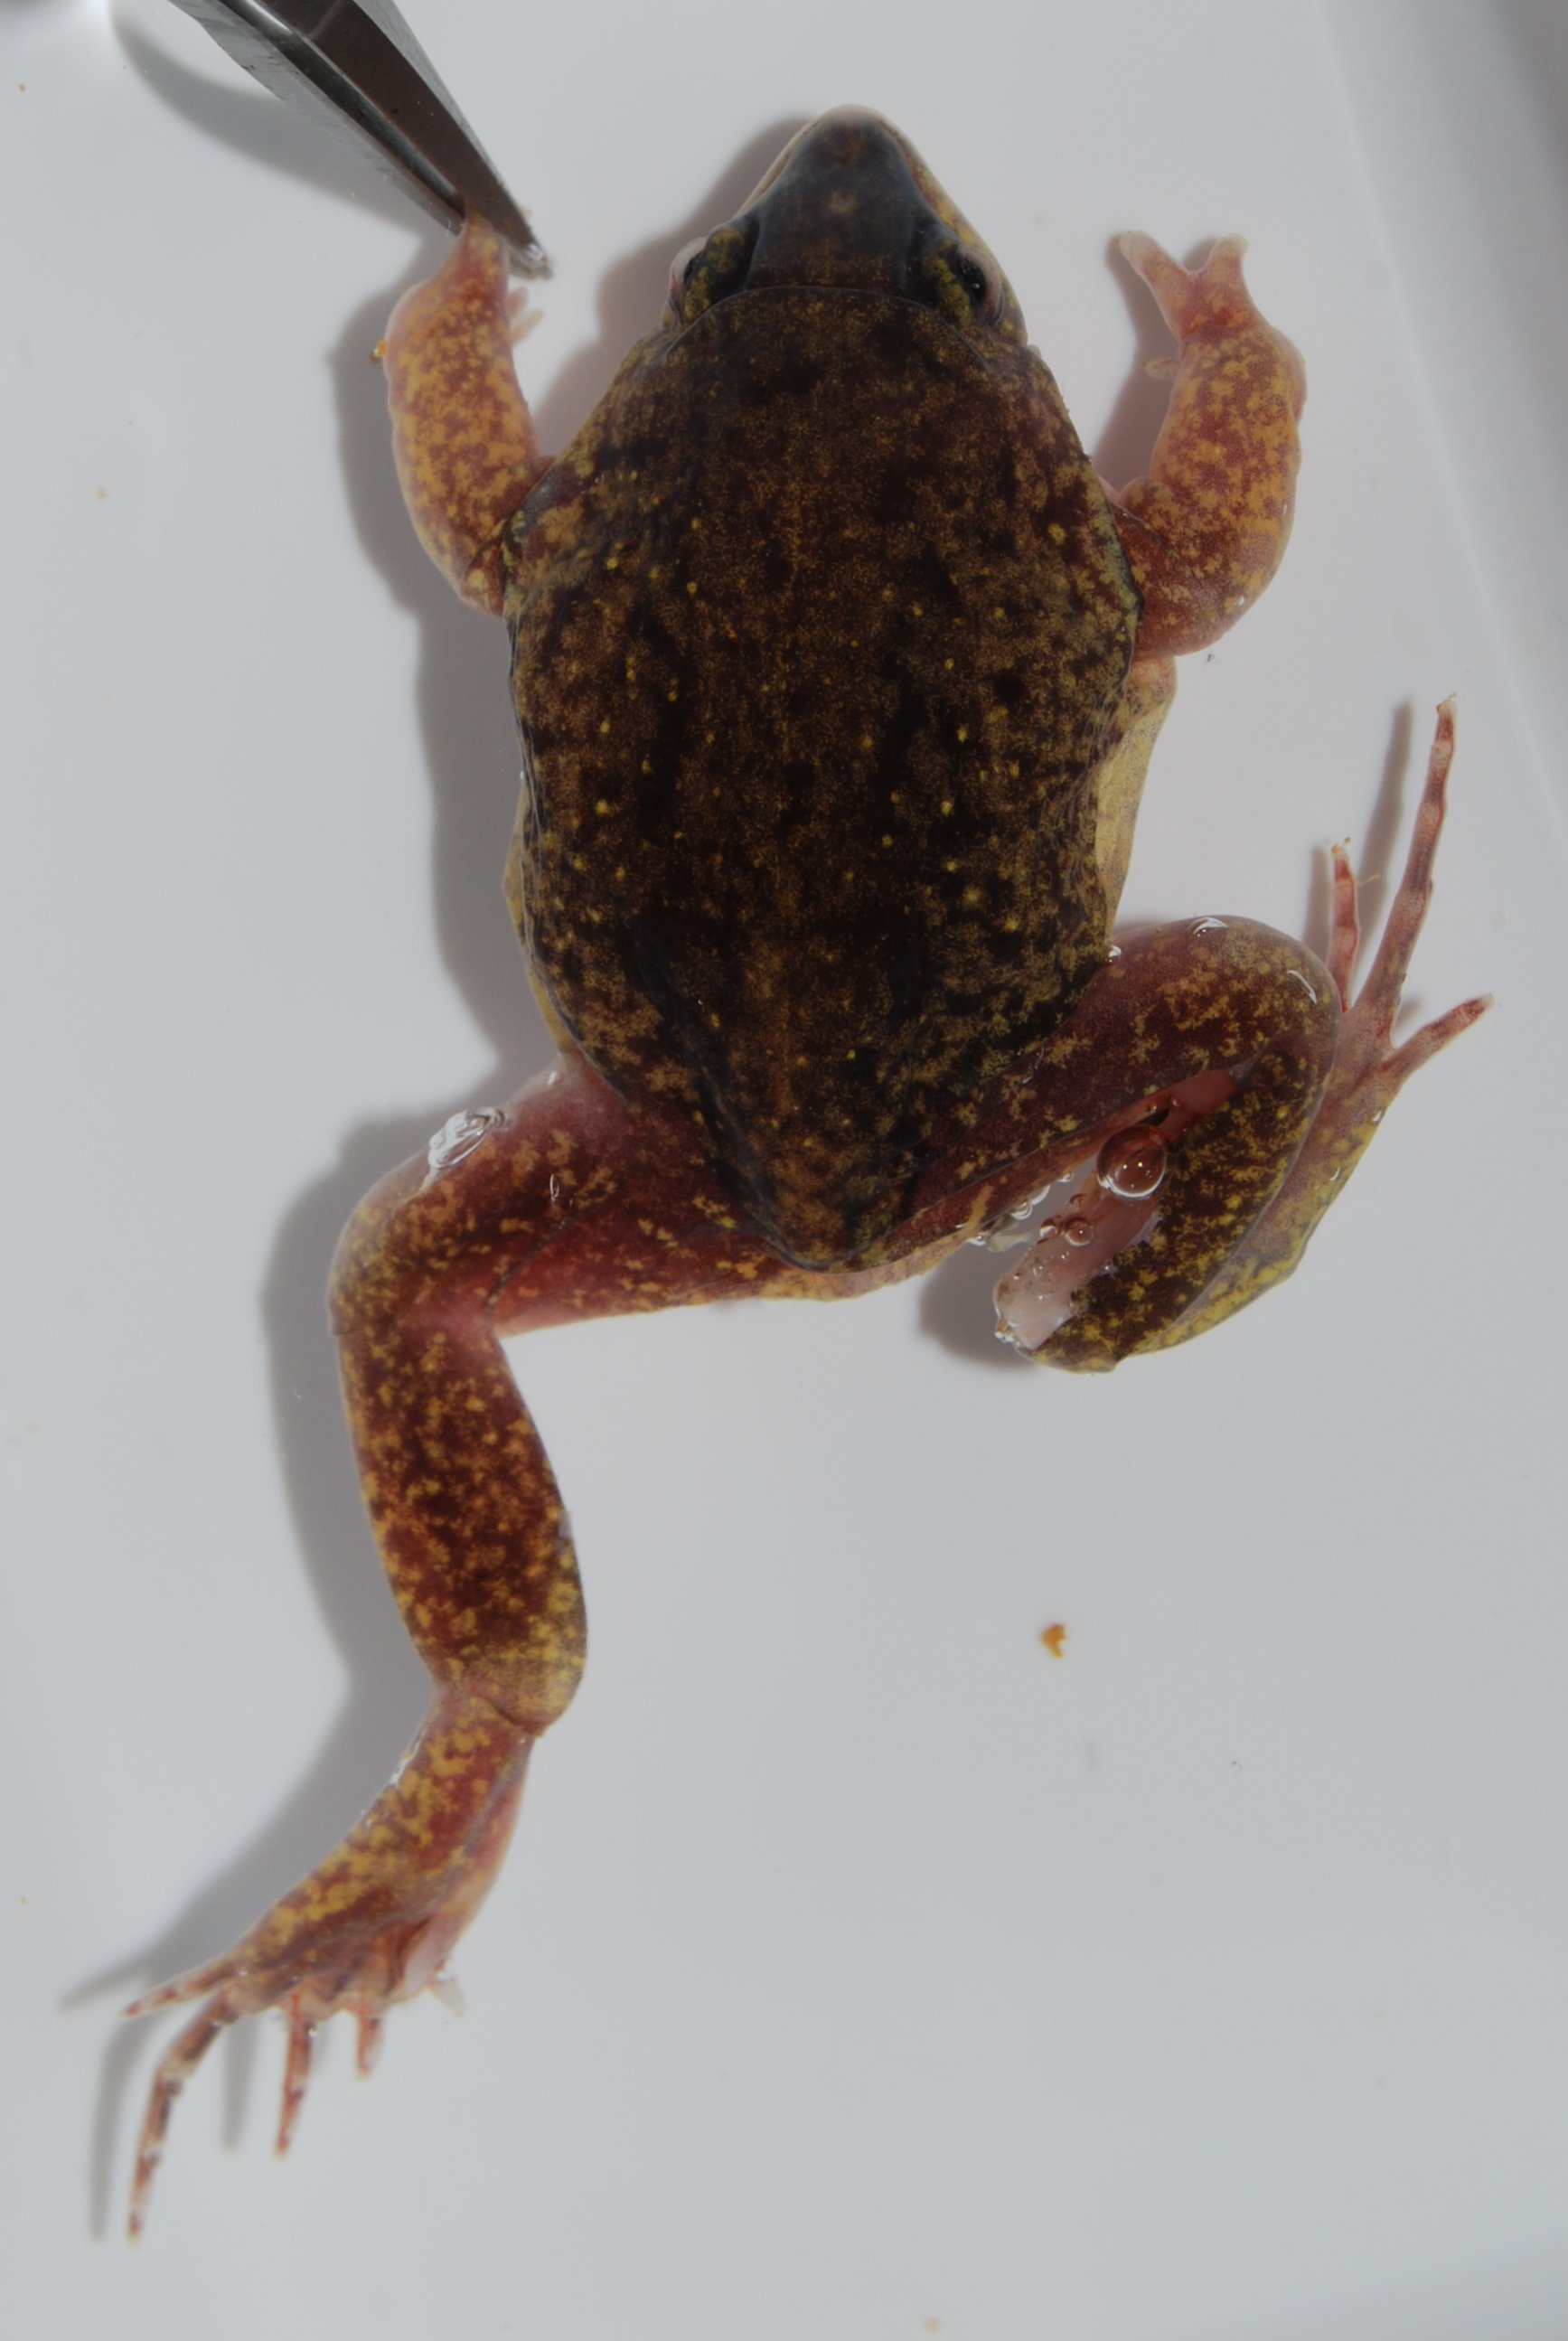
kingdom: Animalia
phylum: Chordata
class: Amphibia
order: Anura
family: Hemisotidae
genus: Hemisus
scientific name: Hemisus barotseensis
